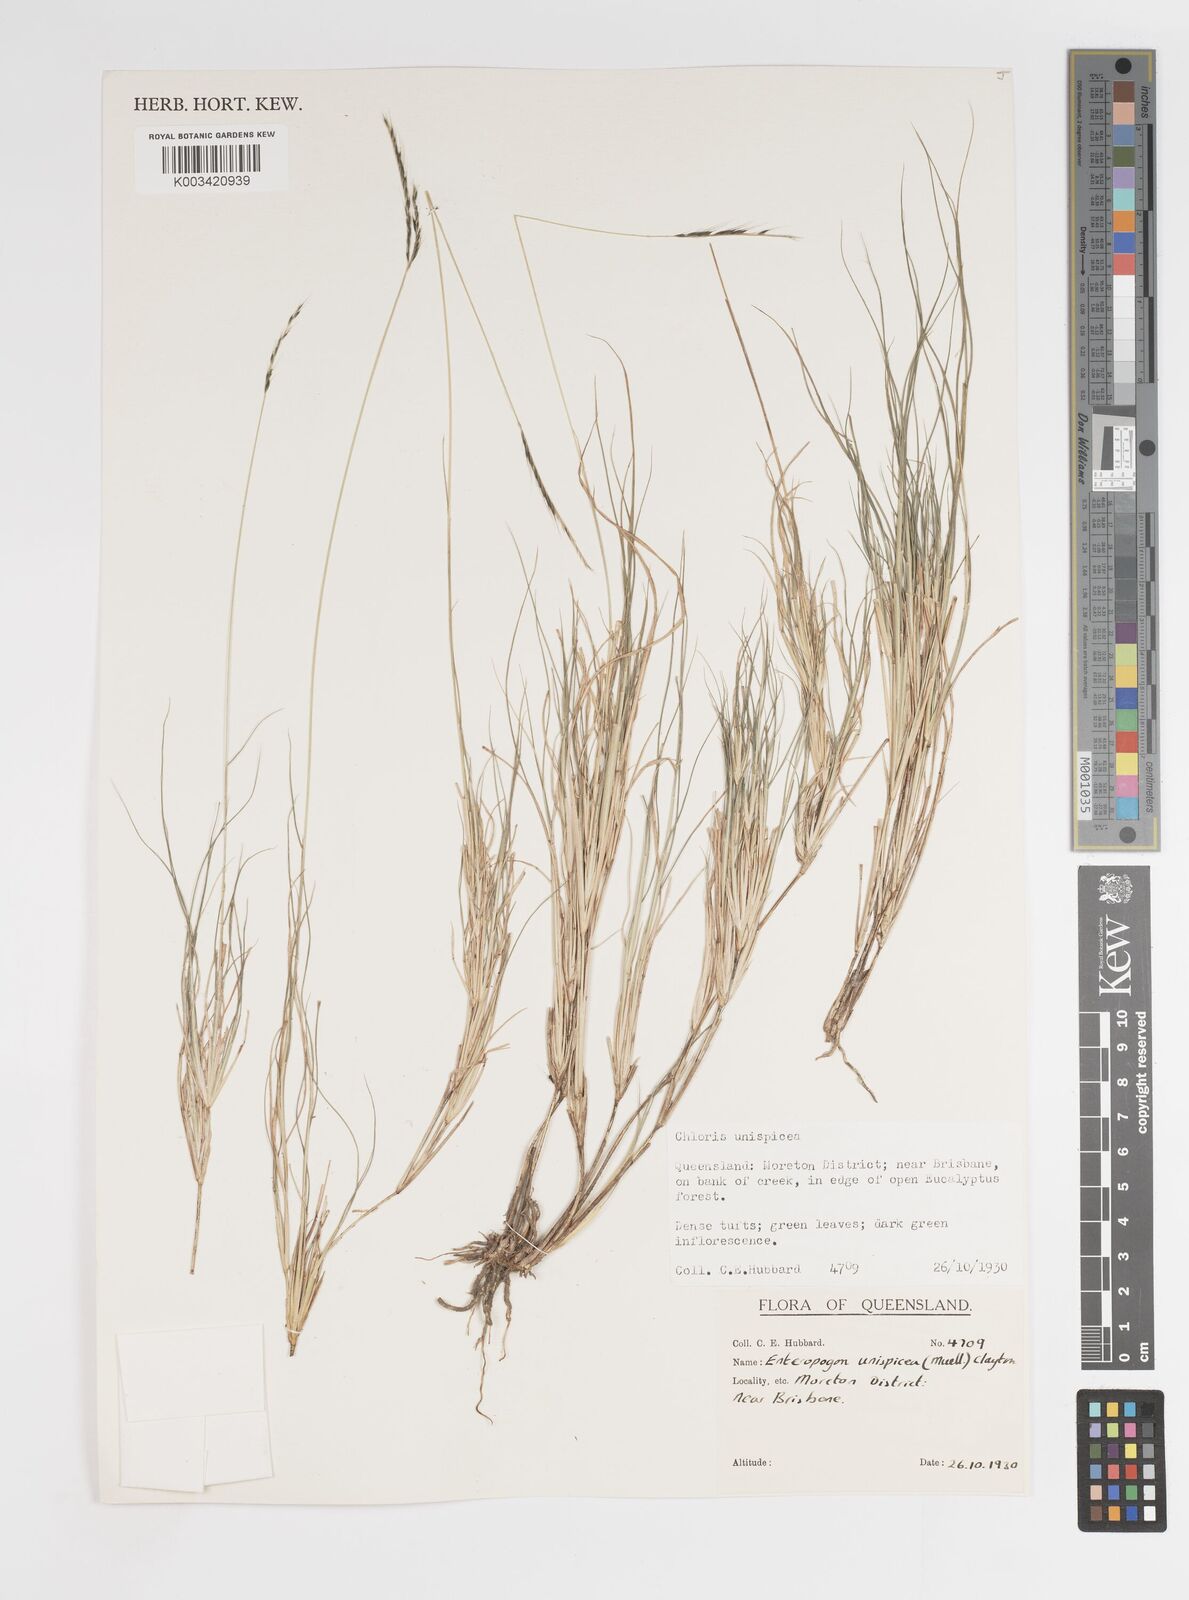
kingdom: Plantae
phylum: Tracheophyta
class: Liliopsida
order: Poales
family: Poaceae
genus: Enteropogon
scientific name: Enteropogon unispiceus
